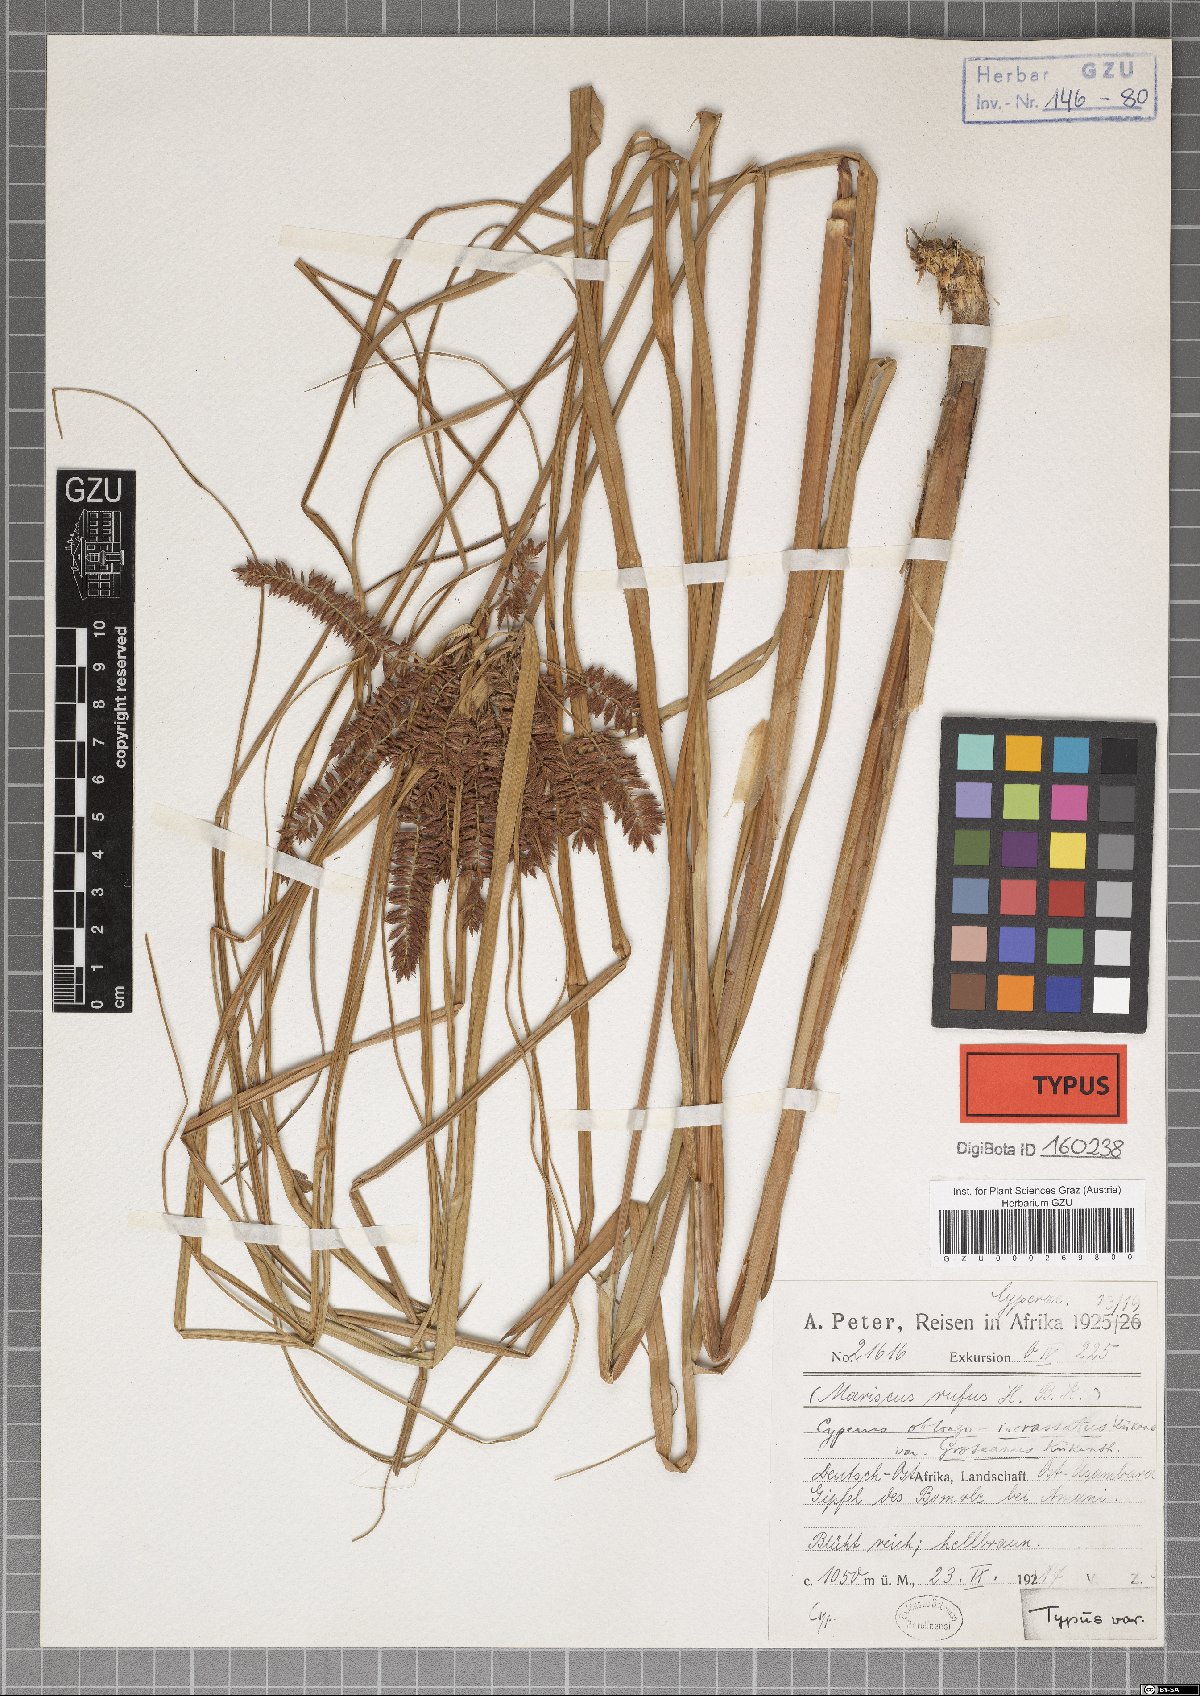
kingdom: Plantae
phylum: Tracheophyta
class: Liliopsida
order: Poales
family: Cyperaceae
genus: Cyperus
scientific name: Cyperus oblongoincrassatus
